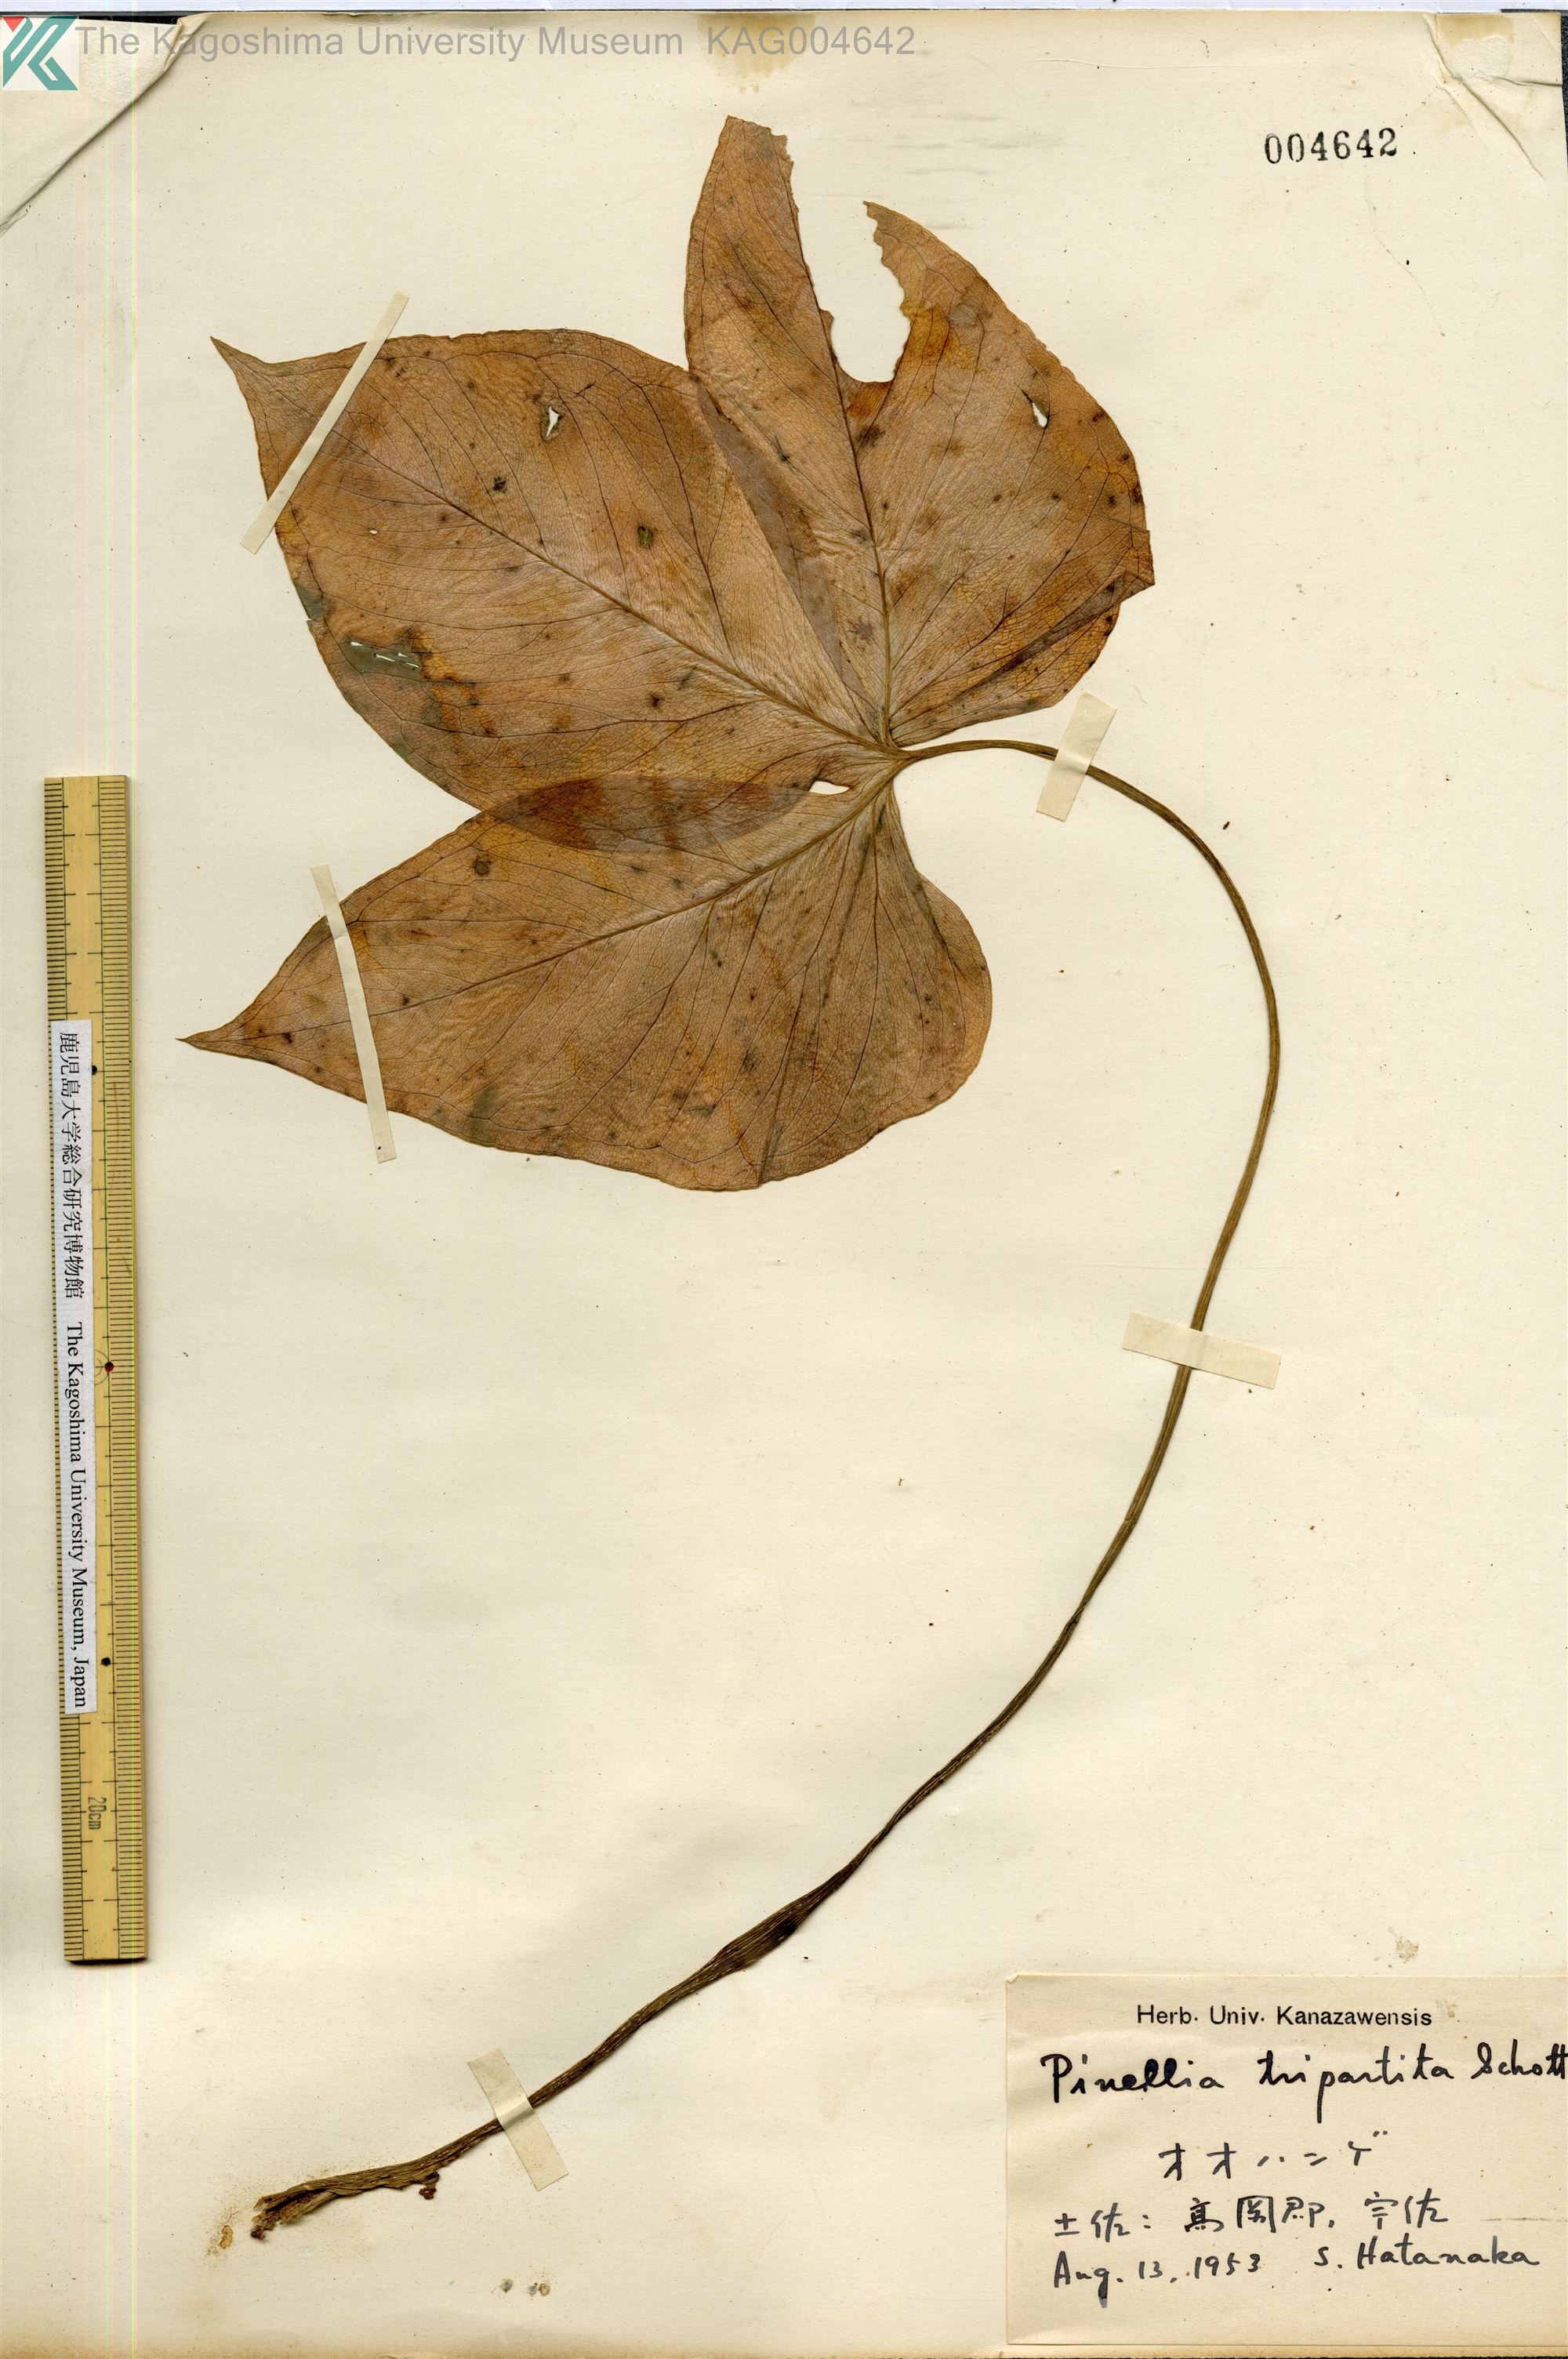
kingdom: Plantae
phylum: Tracheophyta
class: Liliopsida
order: Alismatales
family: Araceae
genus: Pinellia
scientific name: Pinellia tripartita
